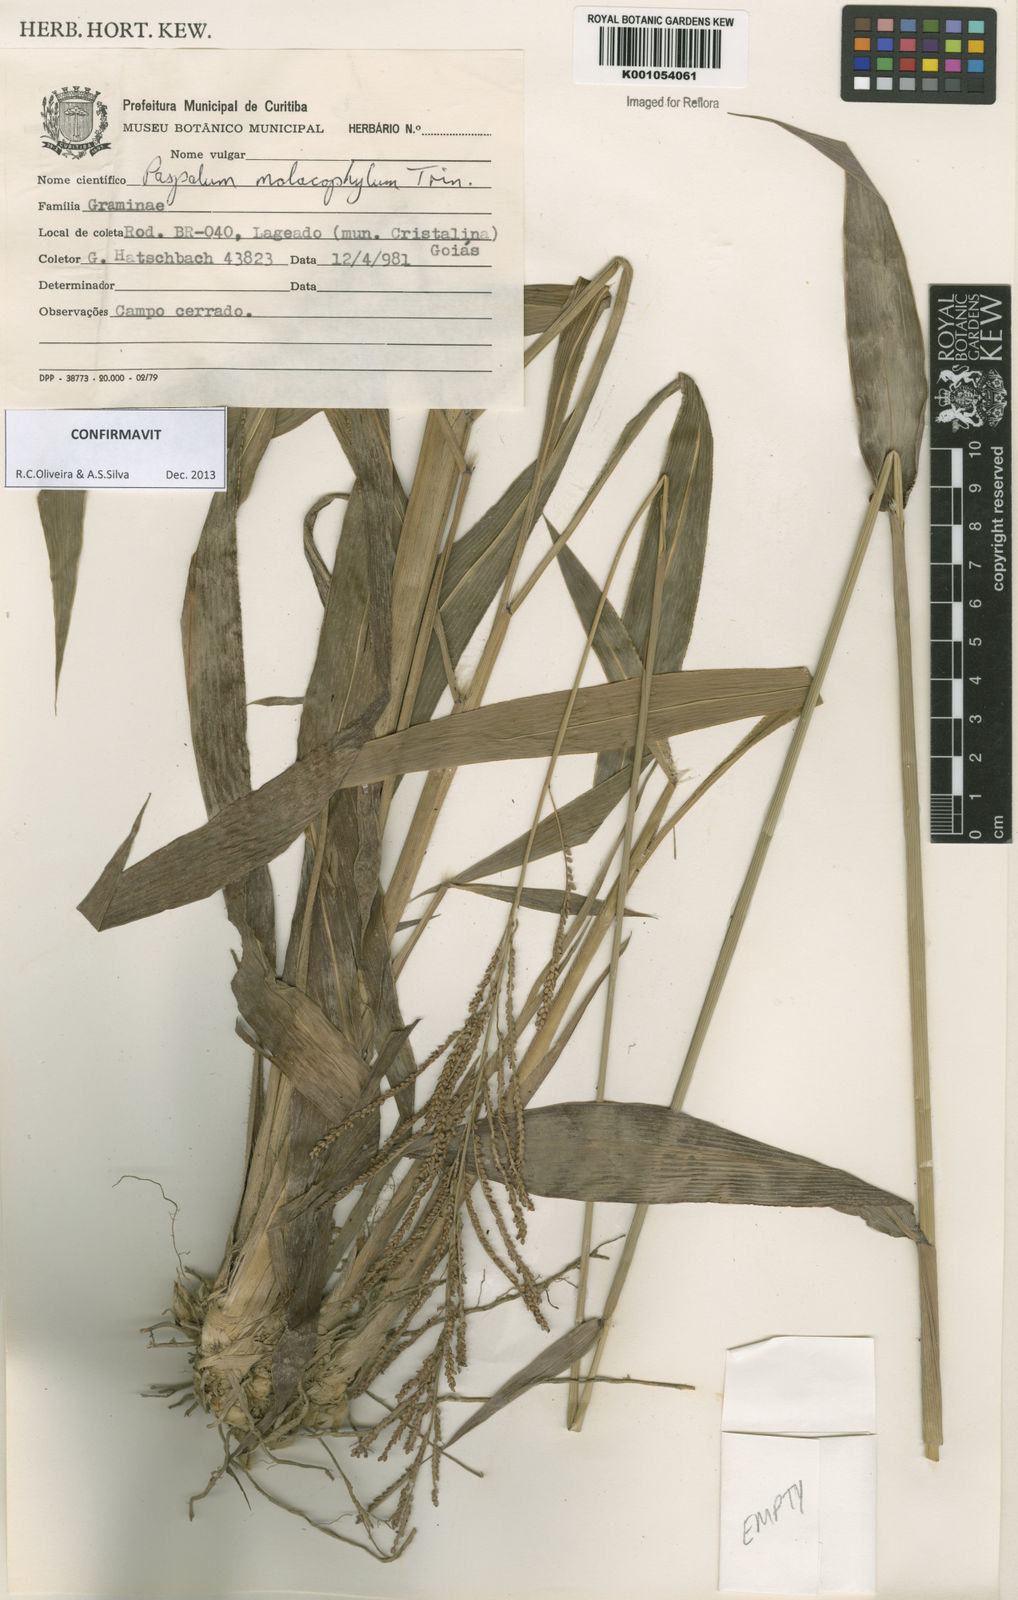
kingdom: Plantae
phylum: Tracheophyta
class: Liliopsida
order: Poales
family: Poaceae
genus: Paspalum
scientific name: Paspalum malacophyllum
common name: Ribbed paspalum
